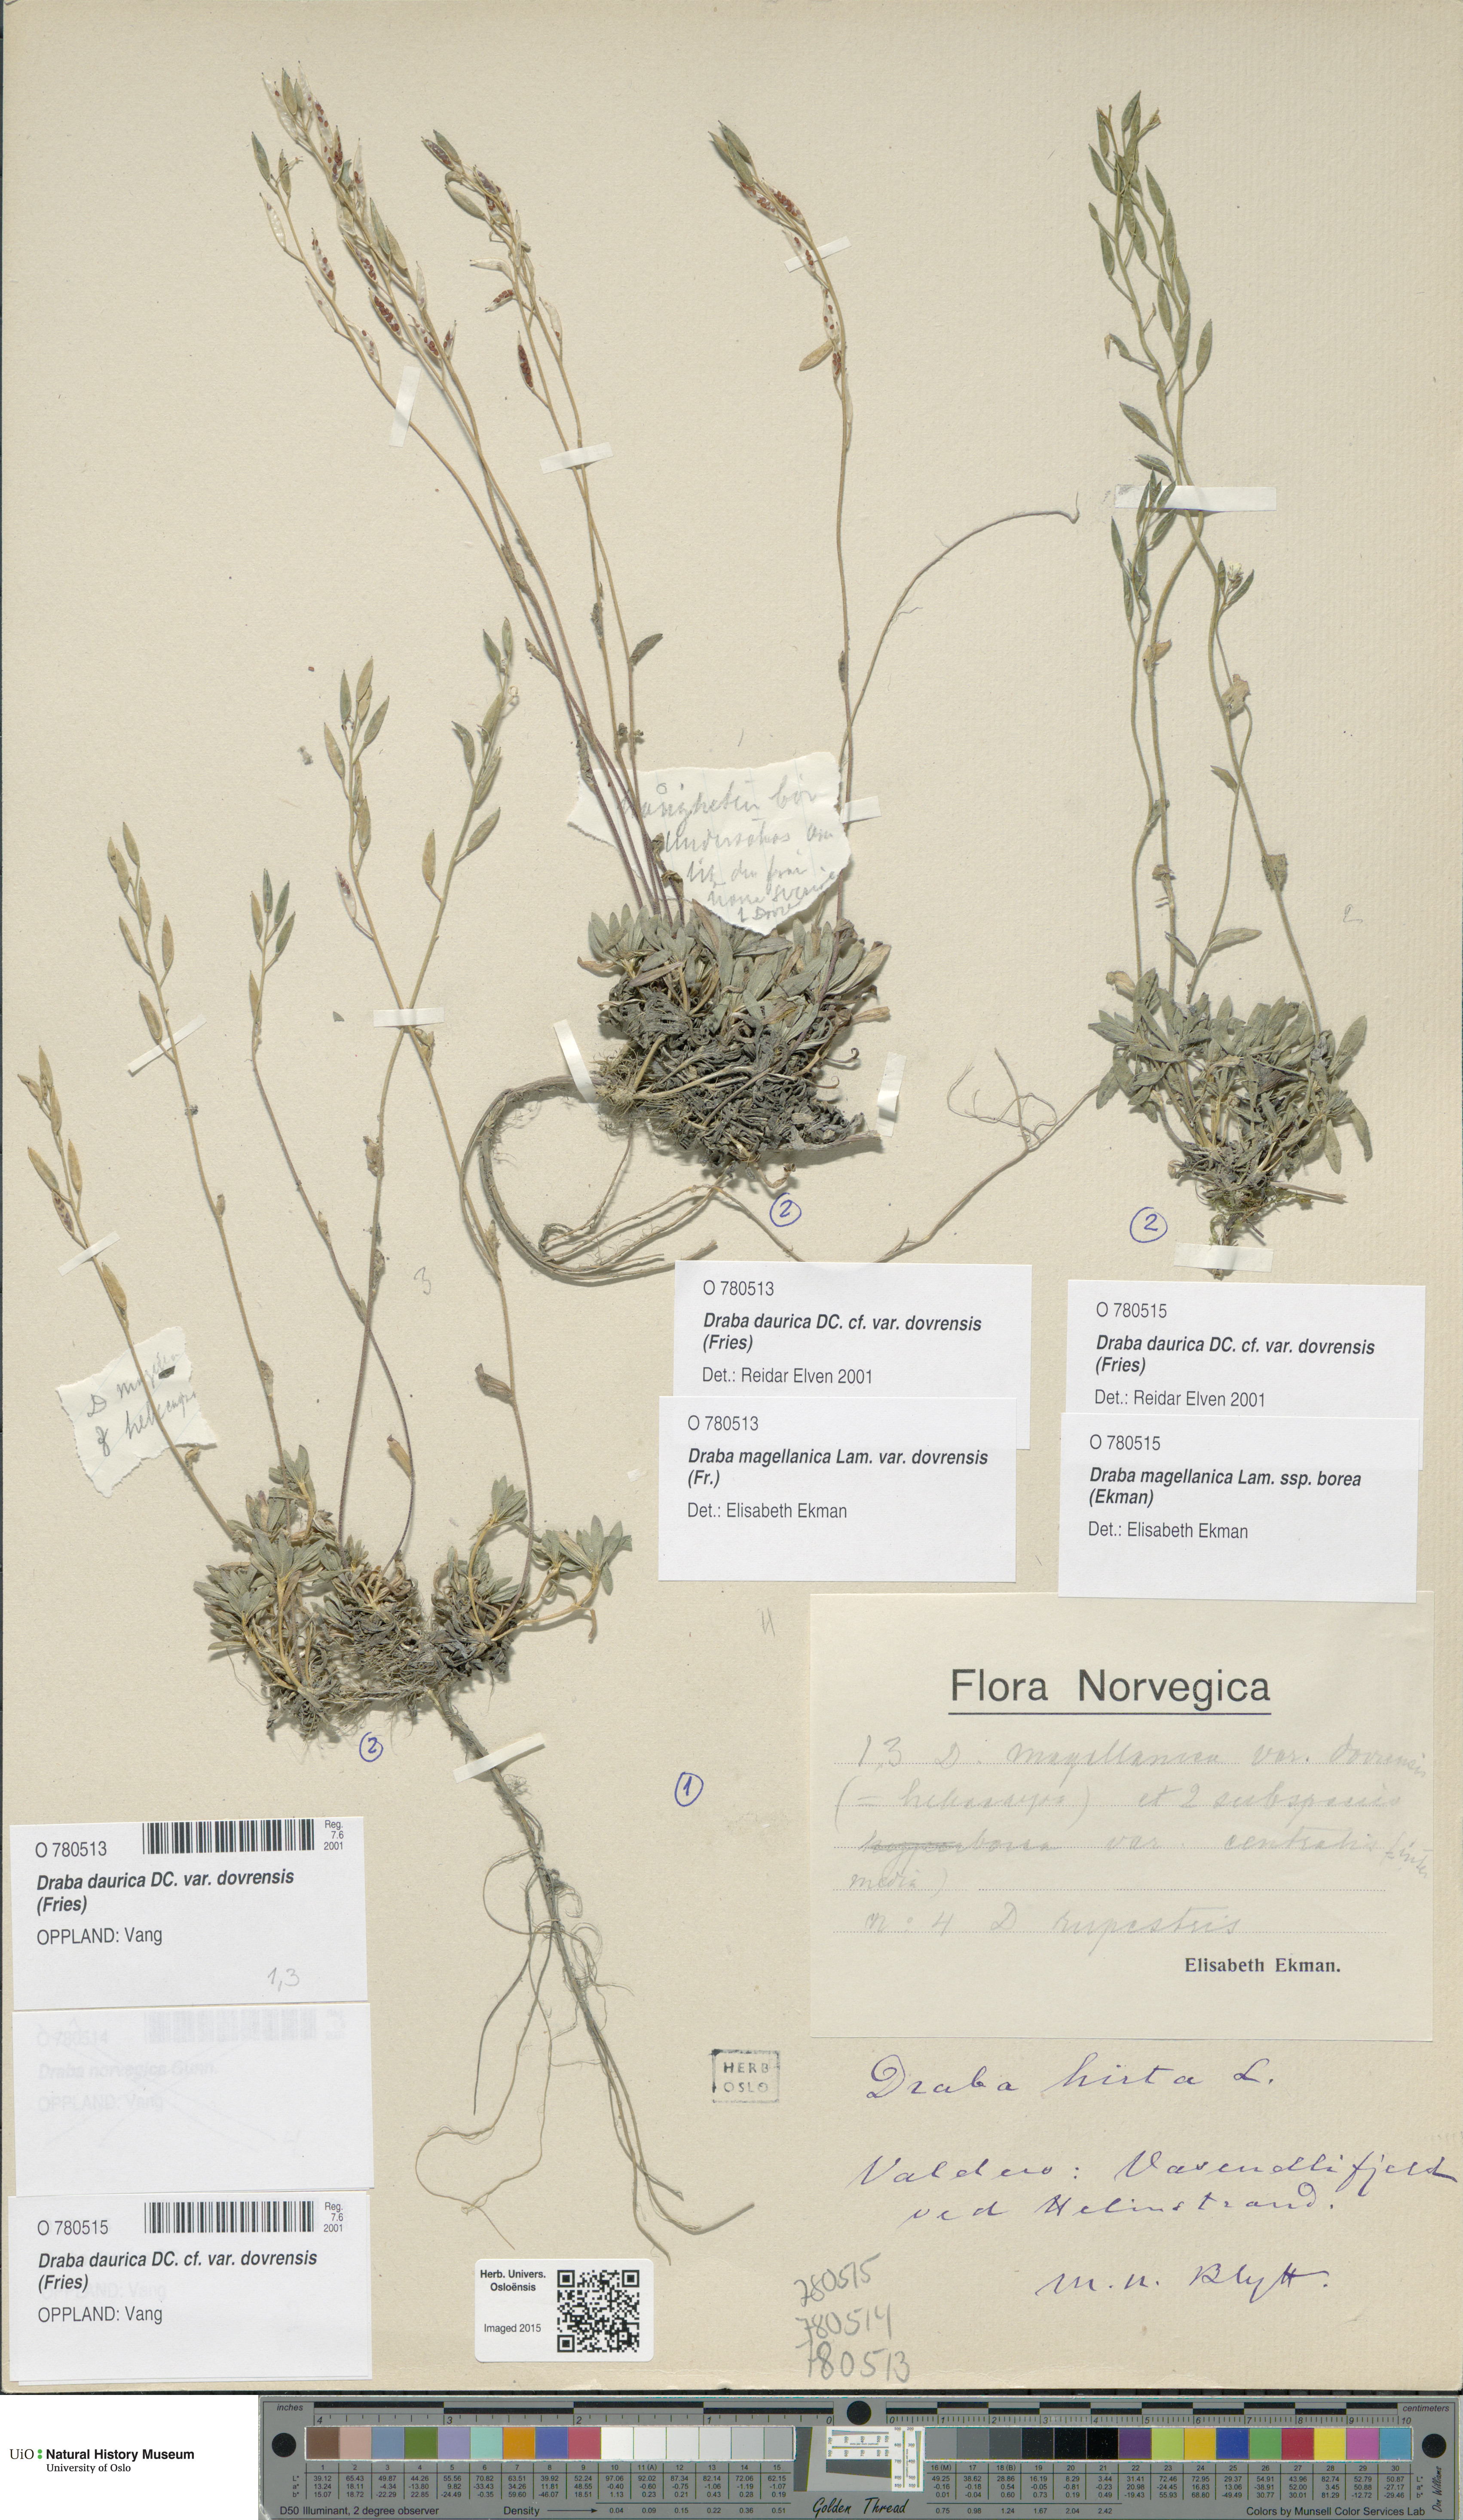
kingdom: Plantae
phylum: Tracheophyta
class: Magnoliopsida
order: Brassicales
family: Brassicaceae
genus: Draba
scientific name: Draba glabella
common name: Glaucous draba
